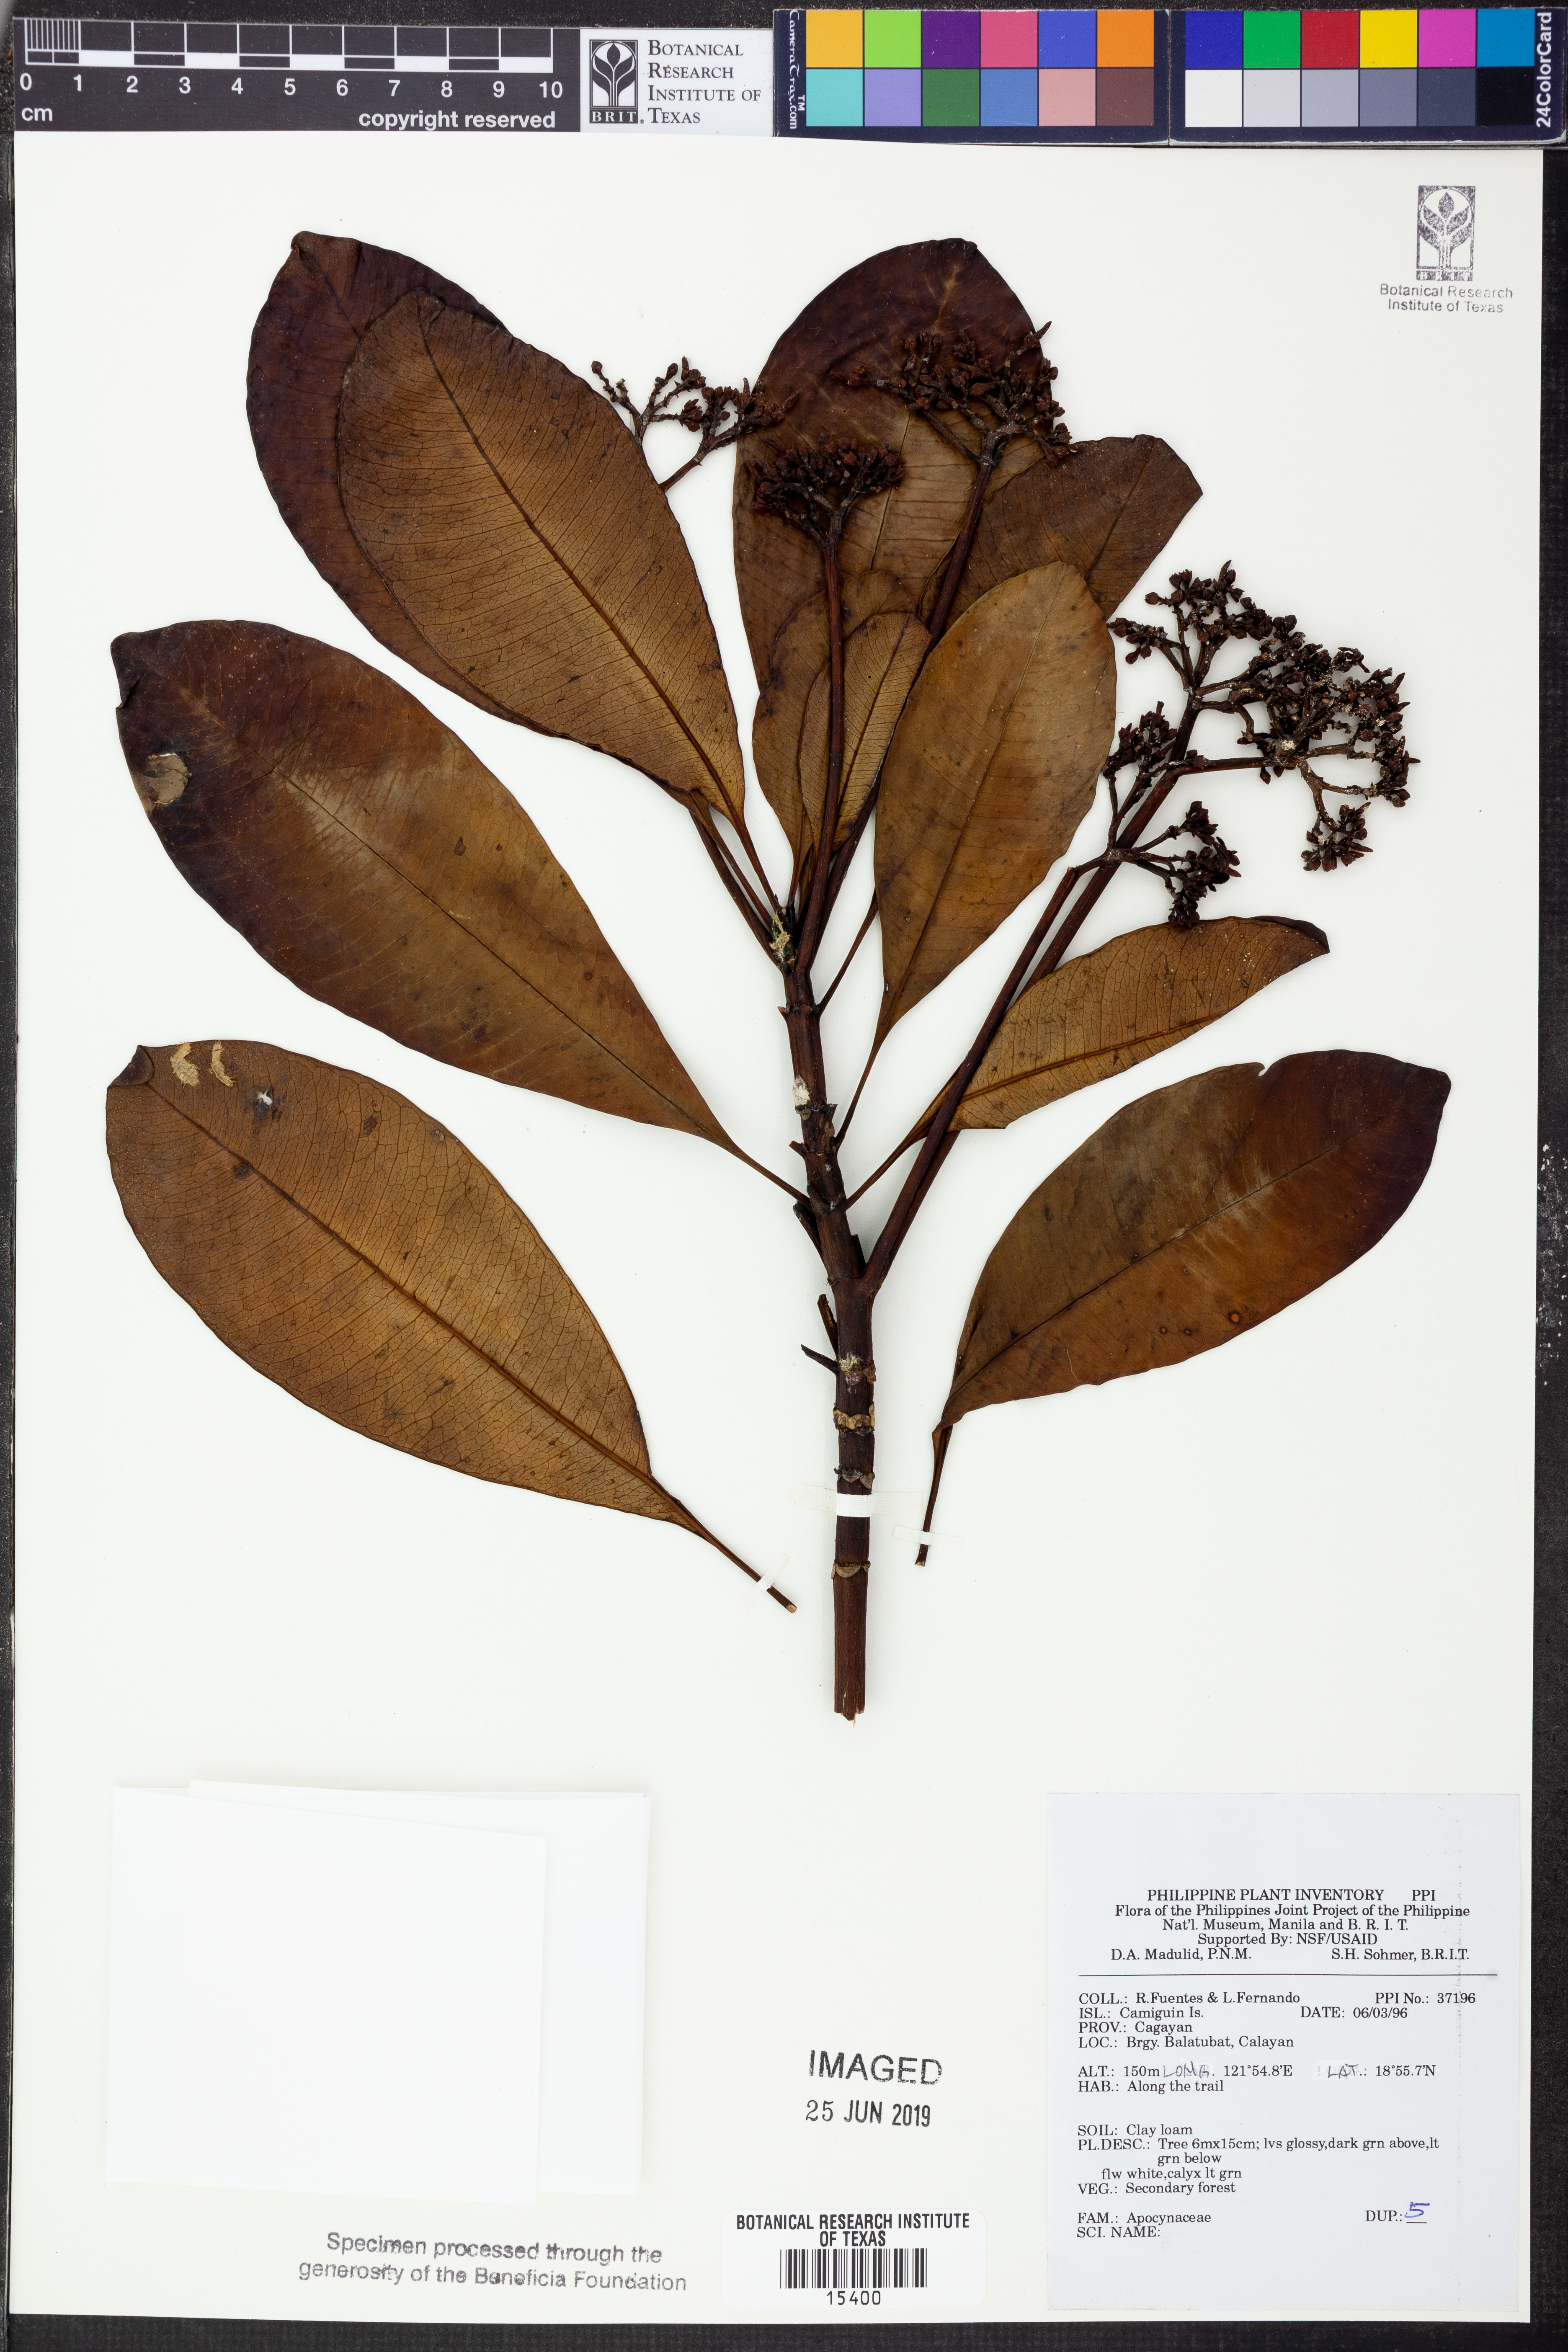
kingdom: Plantae
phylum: Tracheophyta
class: Magnoliopsida
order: Gentianales
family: Apocynaceae
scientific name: Apocynaceae
